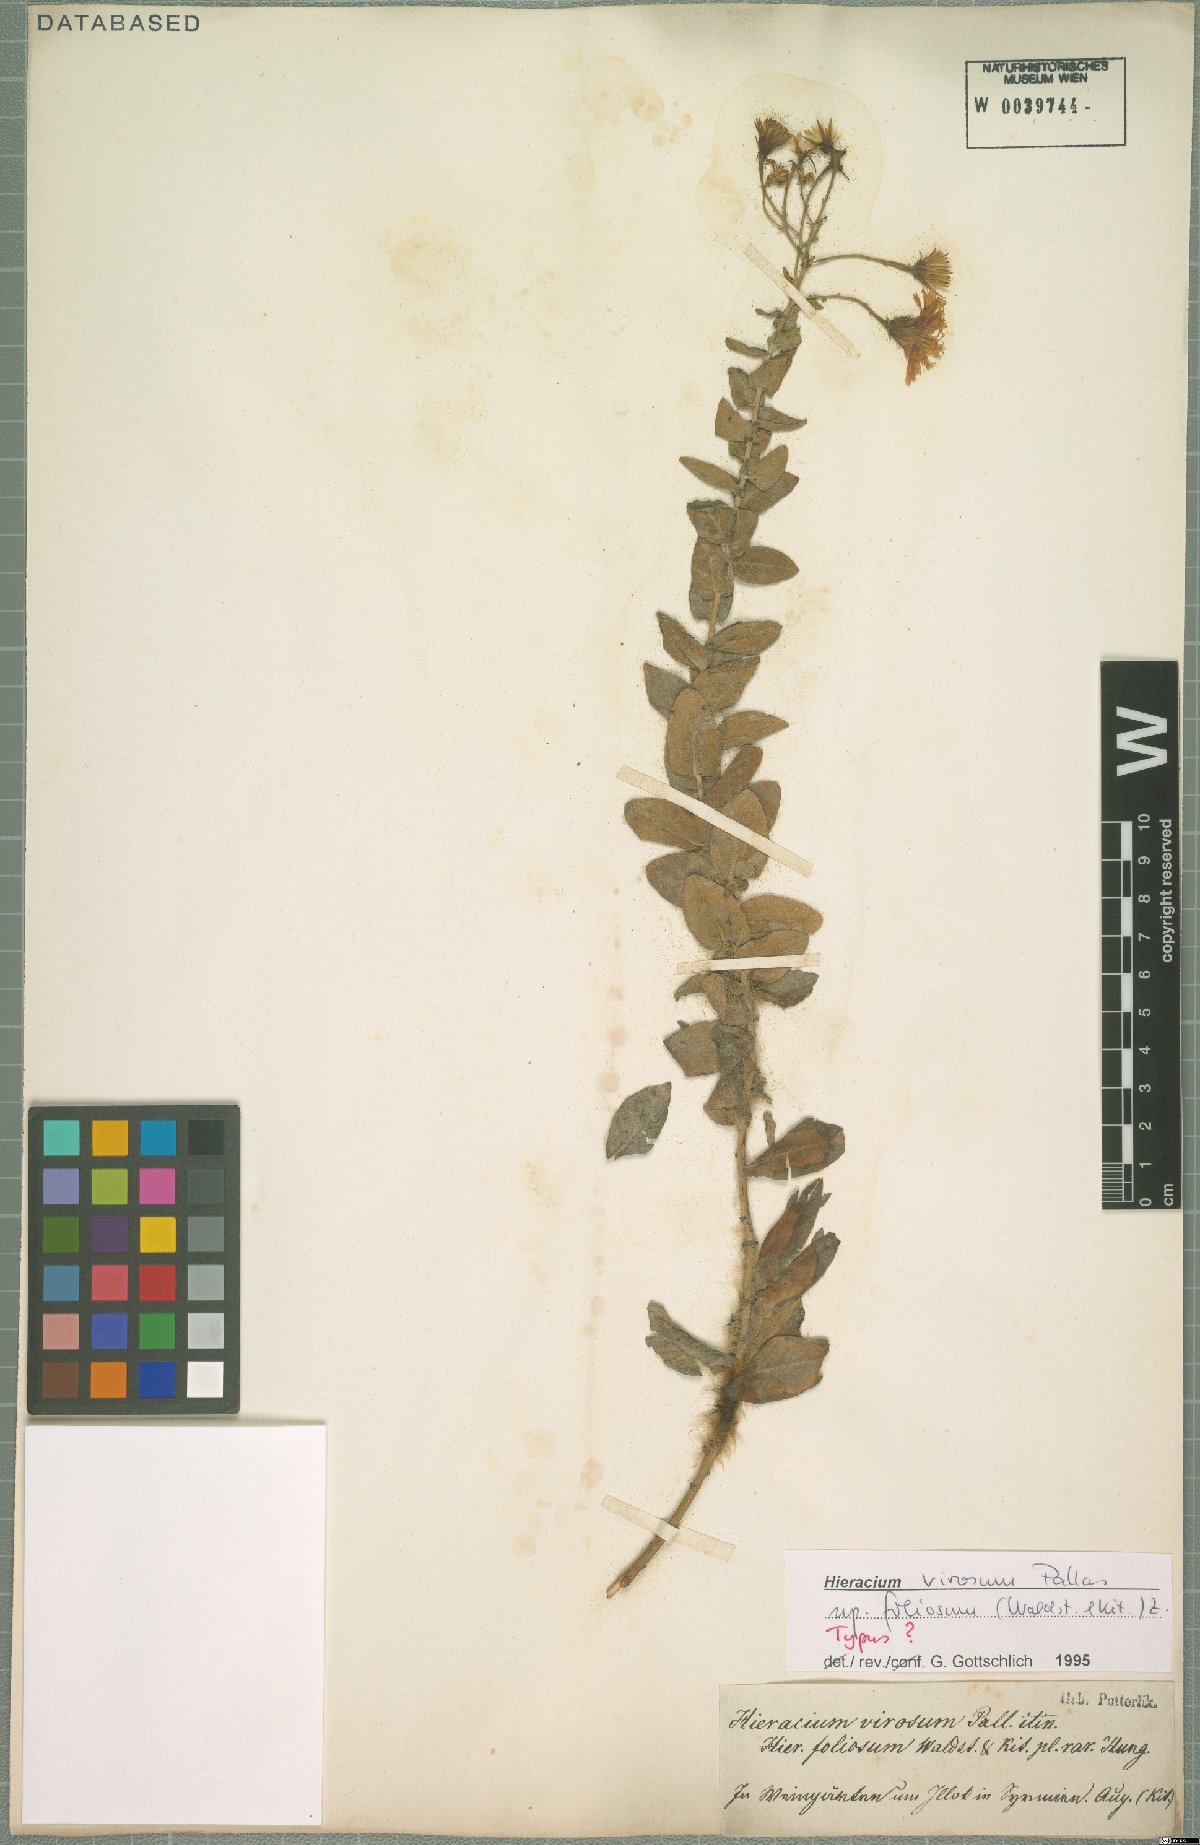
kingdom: Plantae
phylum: Tracheophyta
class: Magnoliopsida
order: Asterales
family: Asteraceae
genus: Hieracium
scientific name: Hieracium virosum
